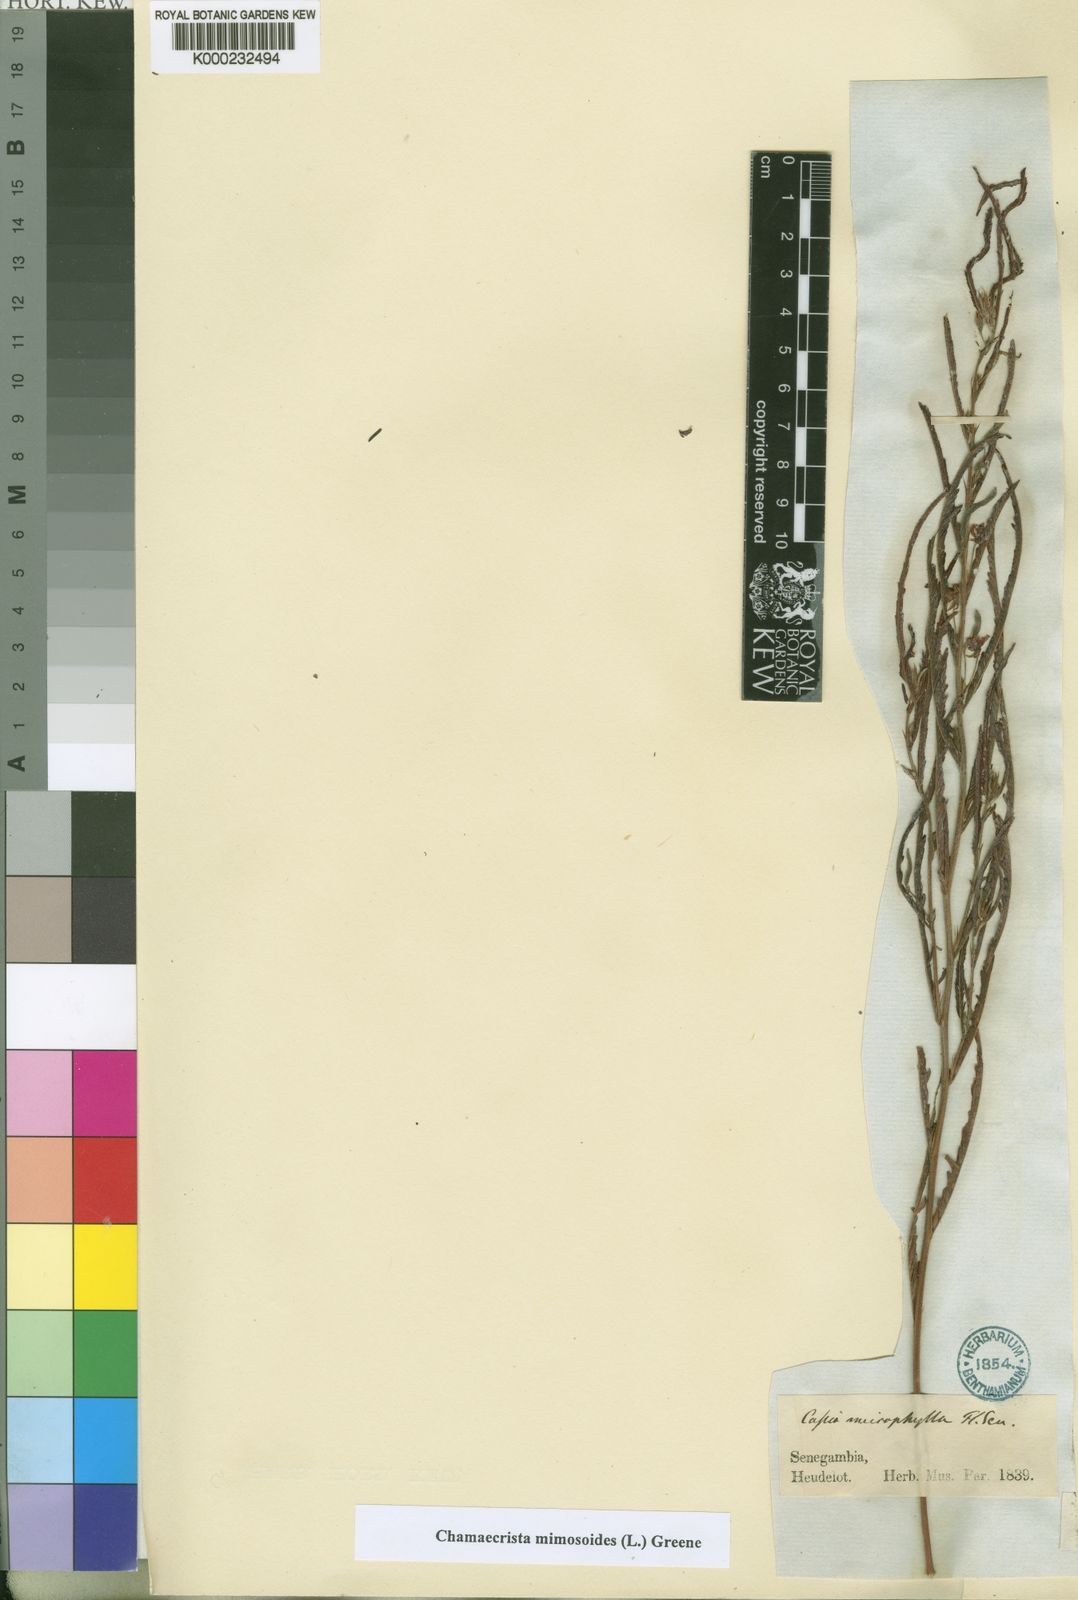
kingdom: Plantae
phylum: Tracheophyta
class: Magnoliopsida
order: Fabales
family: Fabaceae
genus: Chamaecrista
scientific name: Chamaecrista mimosoides
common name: Fish-bone cassia
